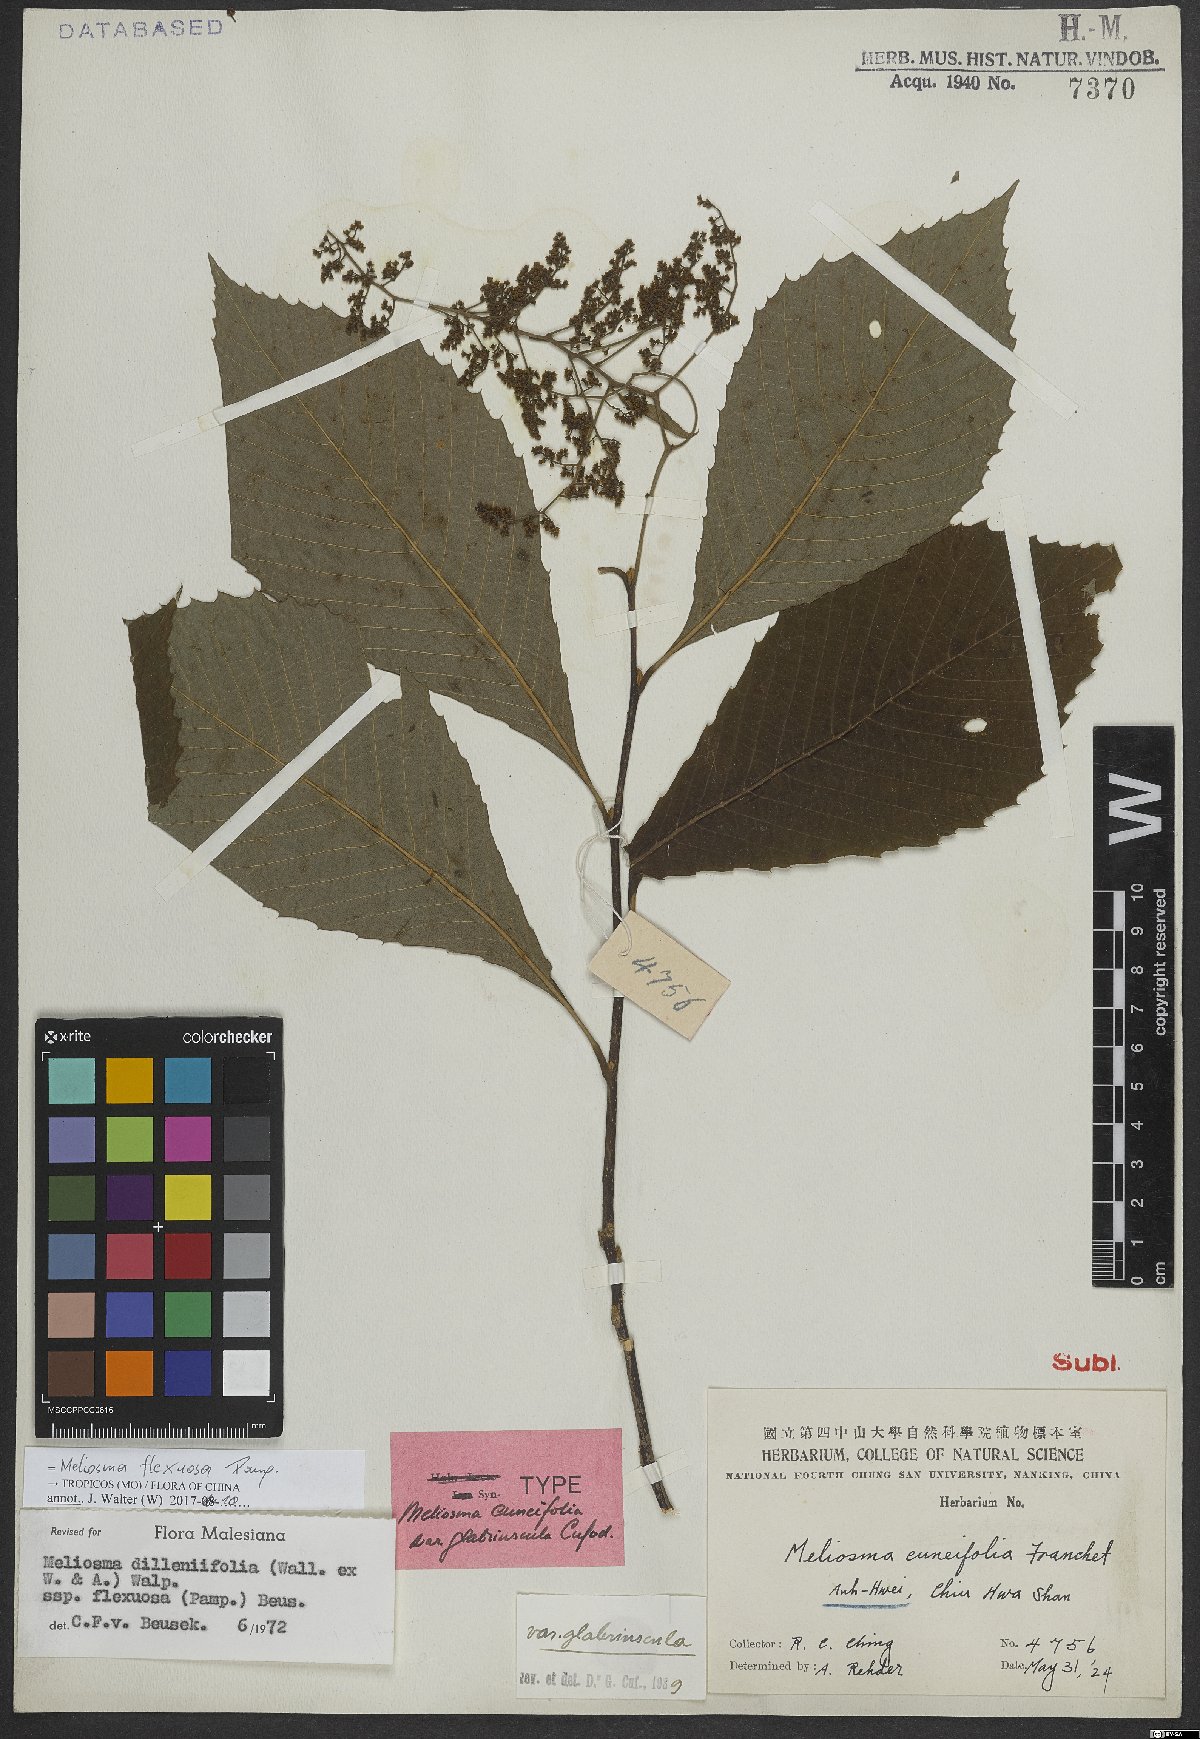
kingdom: Plantae
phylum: Tracheophyta
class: Magnoliopsida
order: Proteales
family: Sabiaceae
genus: Meliosma
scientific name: Meliosma flexuosa
